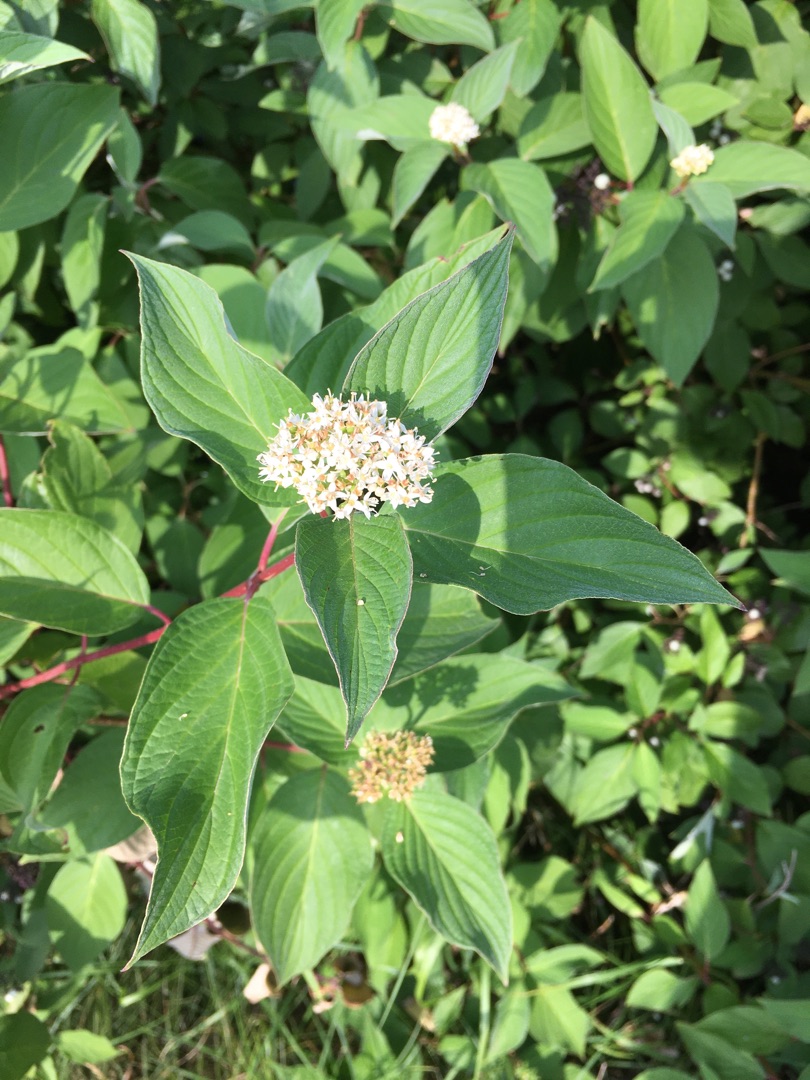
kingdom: Plantae
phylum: Tracheophyta
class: Magnoliopsida
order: Cornales
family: Cornaceae
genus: Cornus
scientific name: Cornus sericea
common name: Krybende kornel
